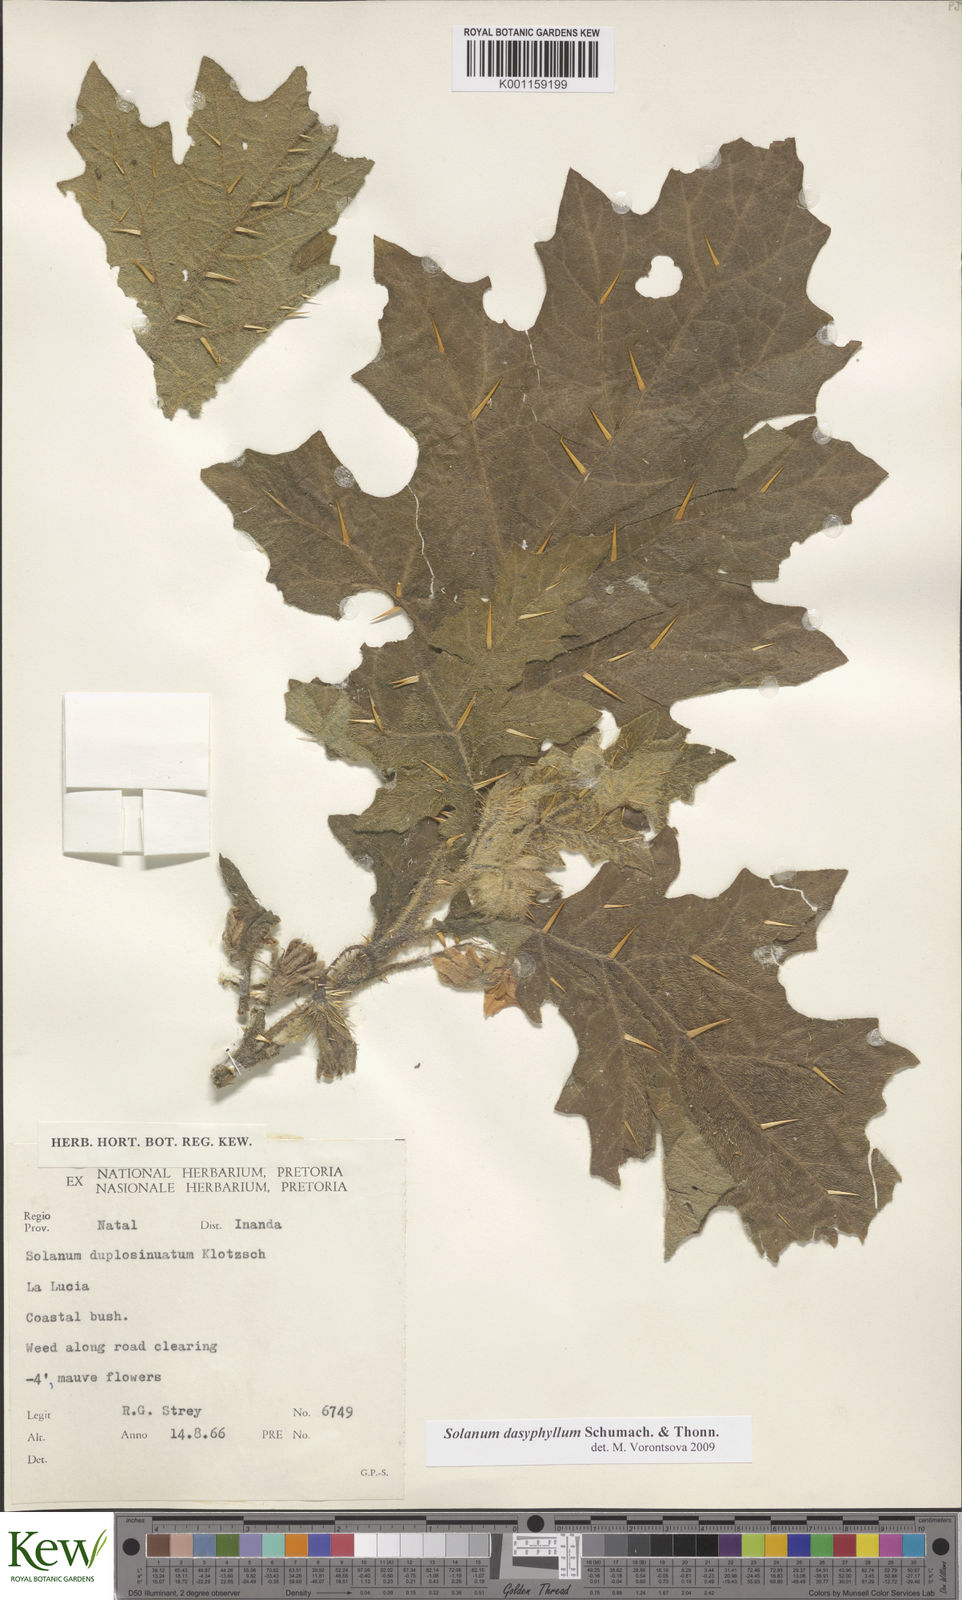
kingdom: Plantae
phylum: Tracheophyta
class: Magnoliopsida
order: Solanales
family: Solanaceae
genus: Solanum
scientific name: Solanum dasyphyllum
